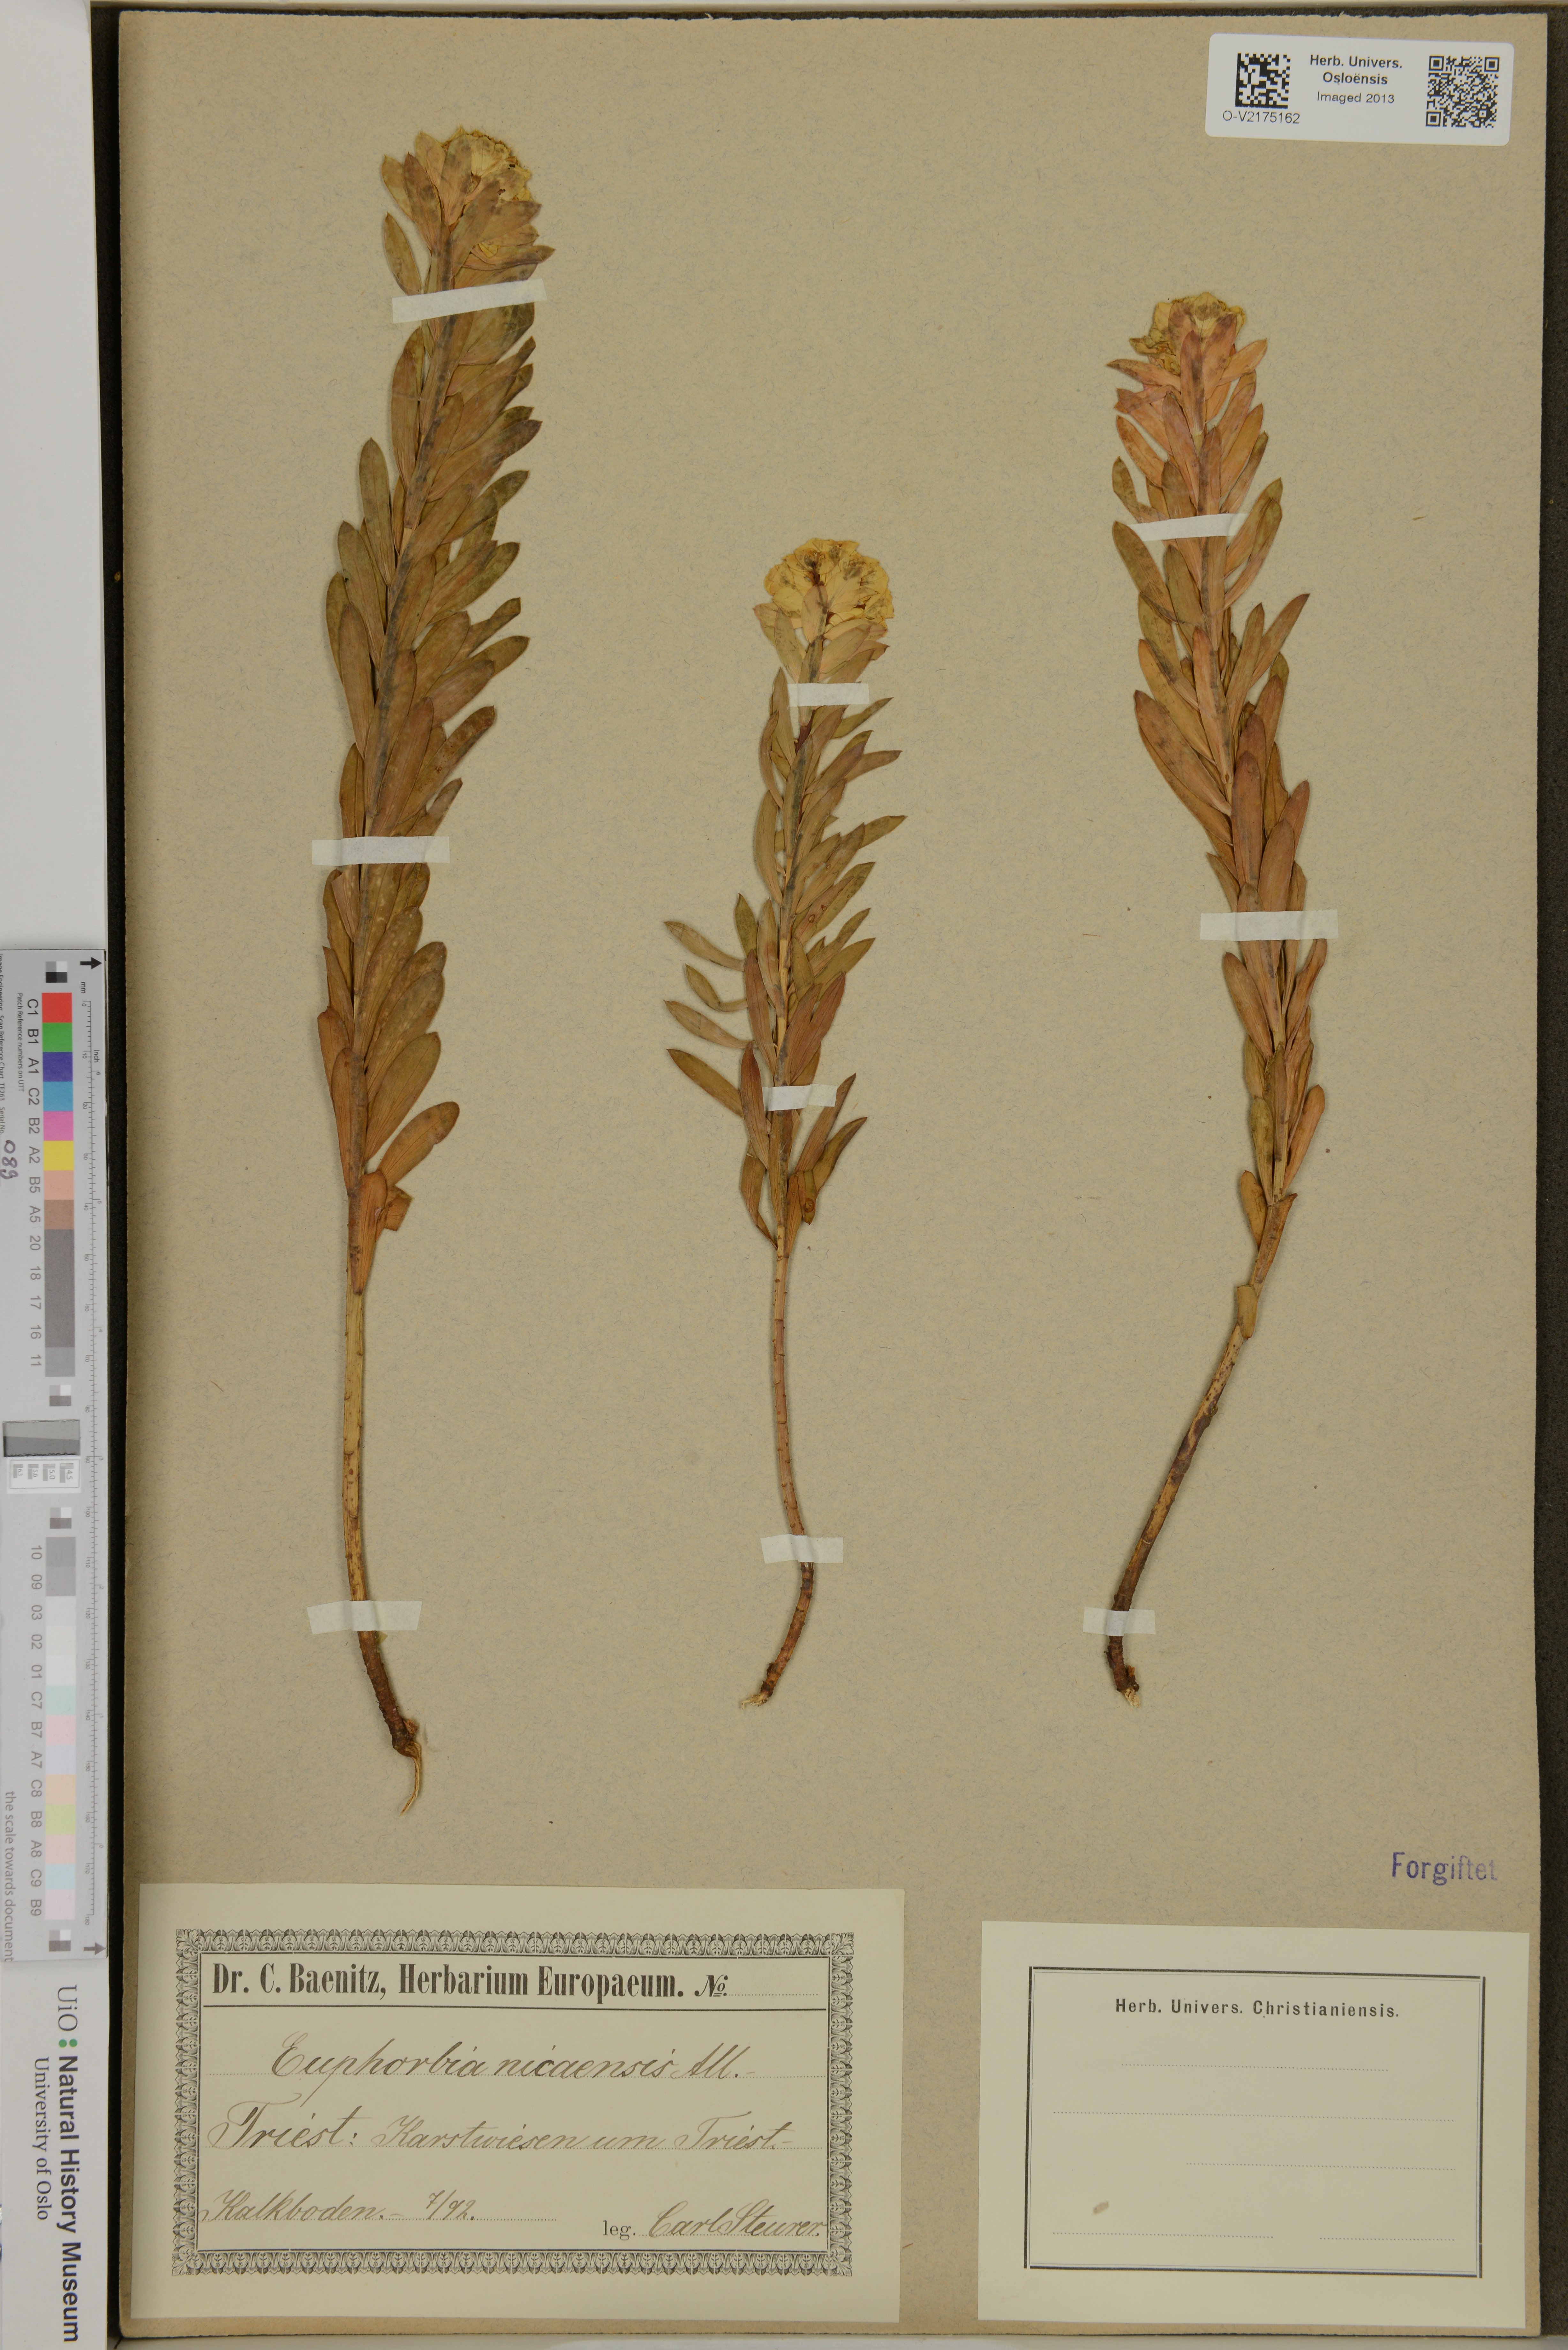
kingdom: Plantae
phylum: Tracheophyta
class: Magnoliopsida
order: Malpighiales
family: Euphorbiaceae
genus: Euphorbia
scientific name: Euphorbia nicaeensis
